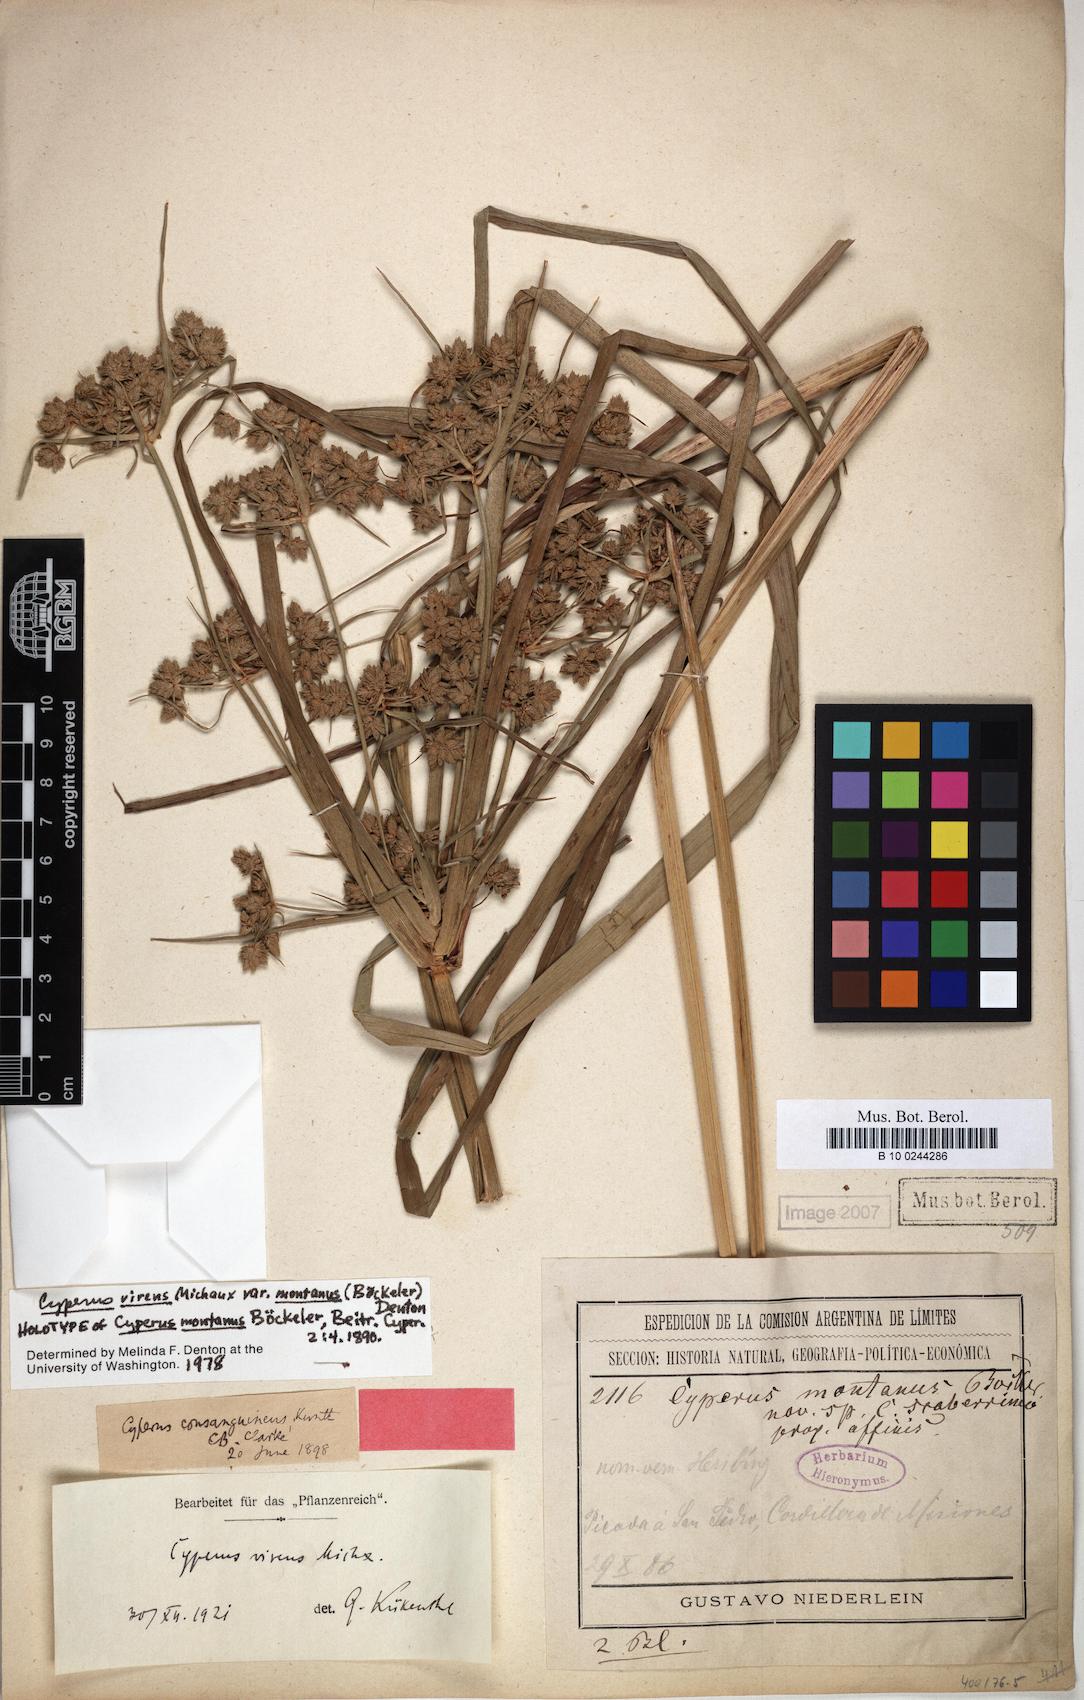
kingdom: Plantae
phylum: Tracheophyta
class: Liliopsida
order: Poales
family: Cyperaceae
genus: Cyperus
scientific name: Cyperus virens
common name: Green flatsedge
